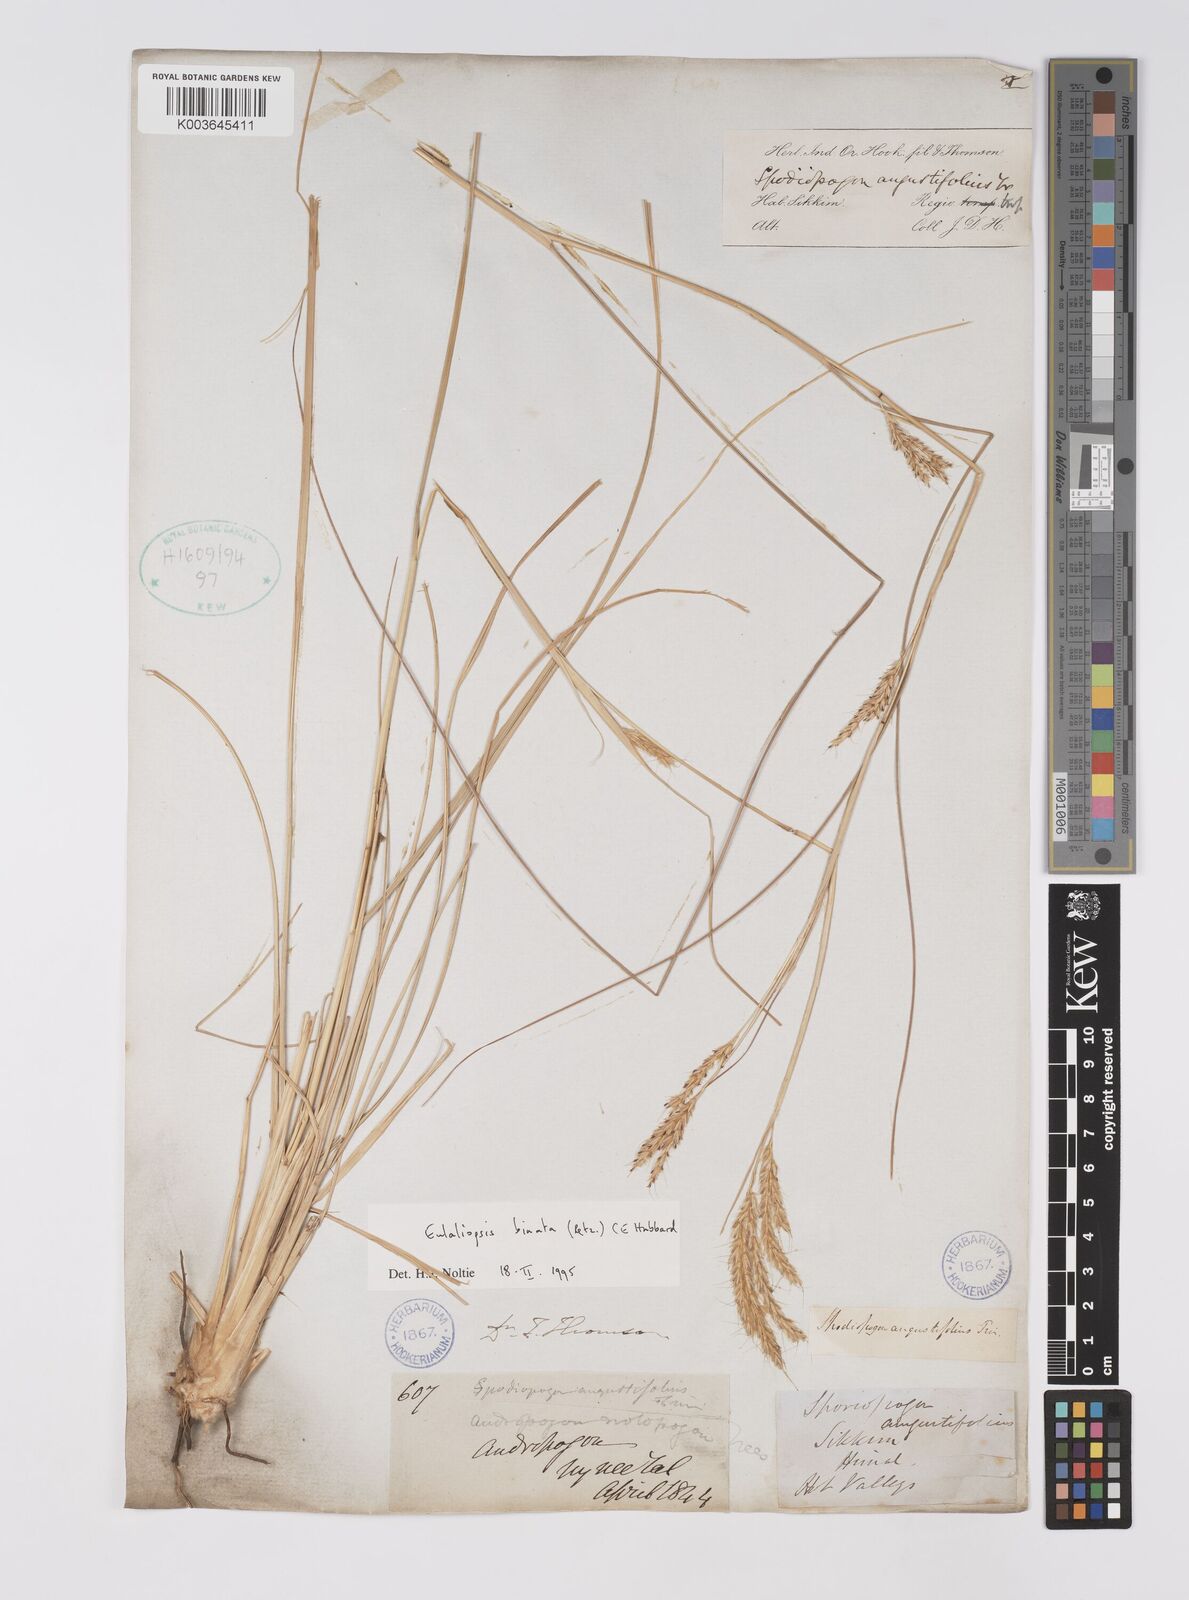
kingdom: Plantae
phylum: Tracheophyta
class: Liliopsida
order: Poales
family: Poaceae
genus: Eulaliopsis
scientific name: Eulaliopsis binata
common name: Baib grass
